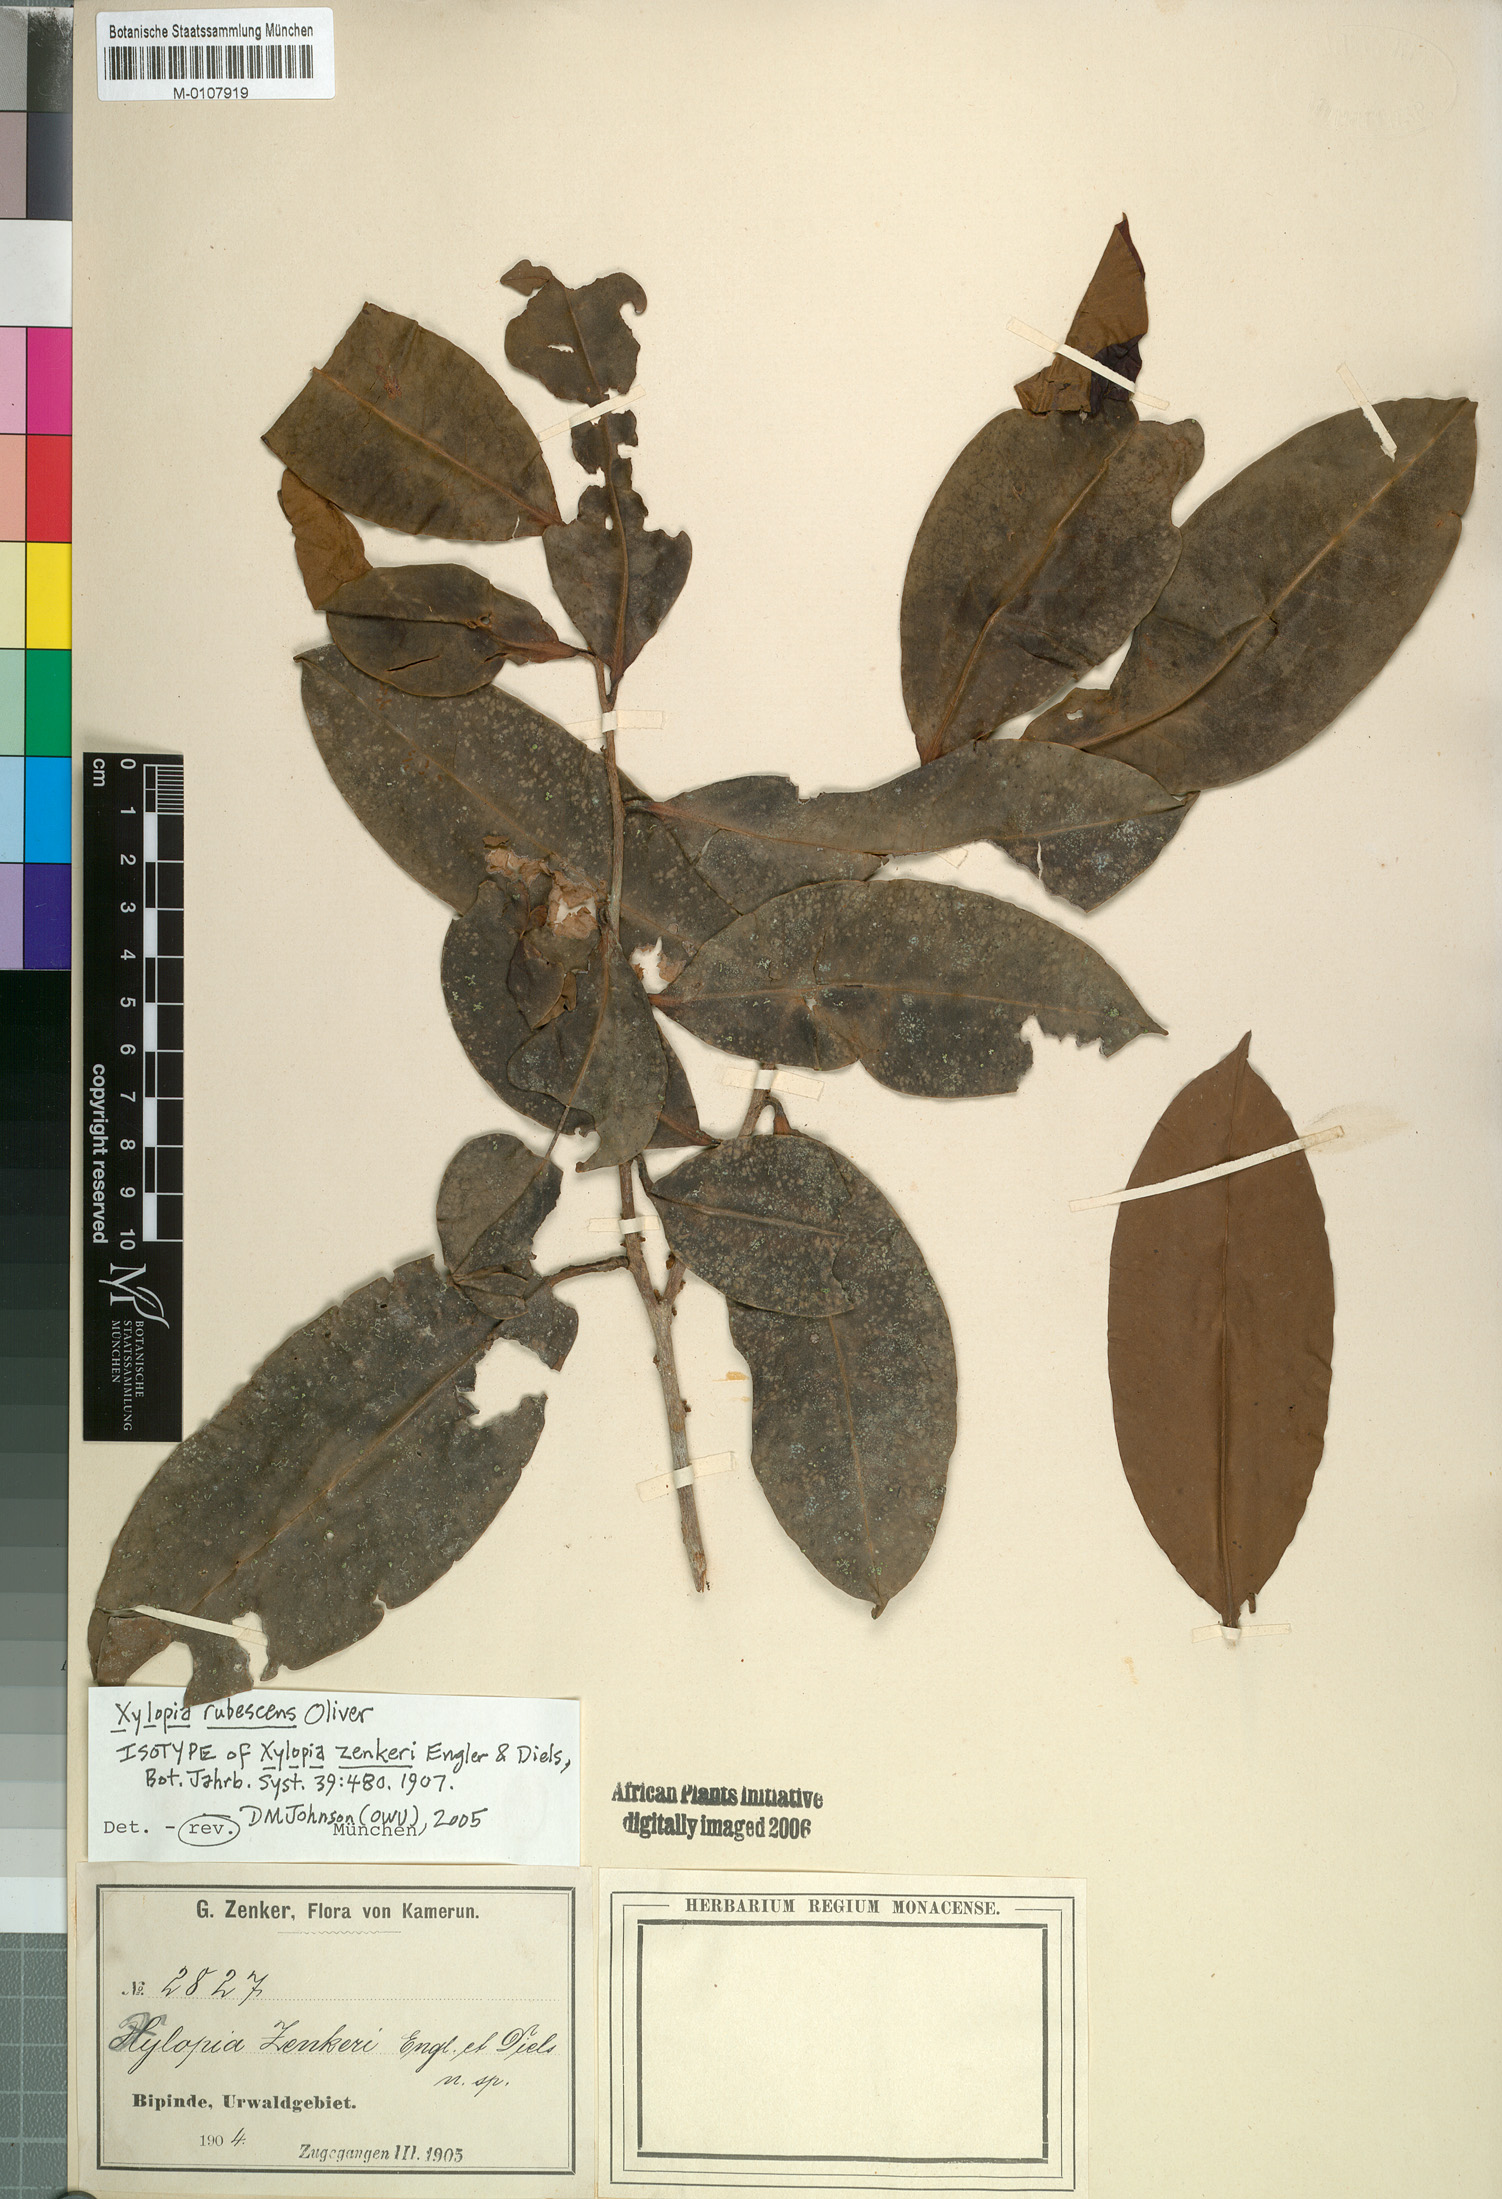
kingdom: Plantae
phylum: Tracheophyta
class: Magnoliopsida
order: Magnoliales
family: Annonaceae
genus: Xylopia
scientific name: Xylopia rubescens
